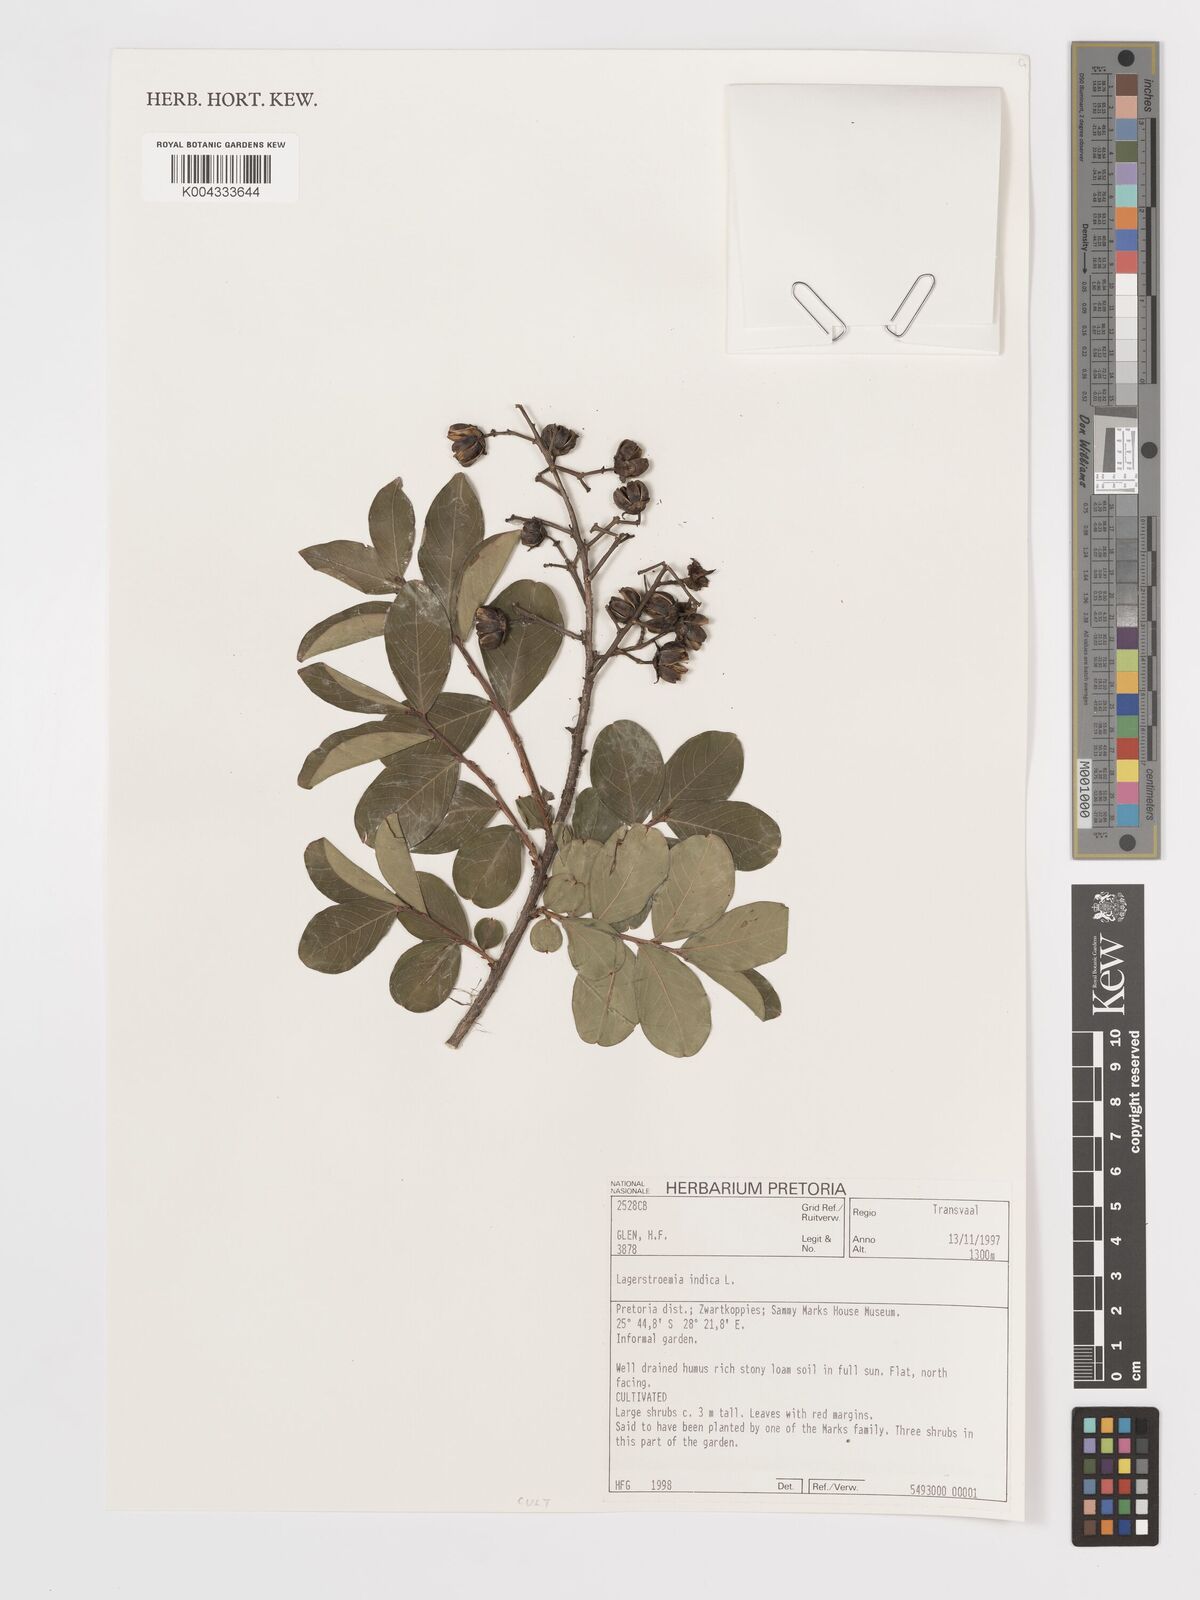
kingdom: Plantae
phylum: Tracheophyta
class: Magnoliopsida
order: Myrtales
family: Lythraceae
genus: Lagerstroemia
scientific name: Lagerstroemia indica
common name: Crape-myrtle
